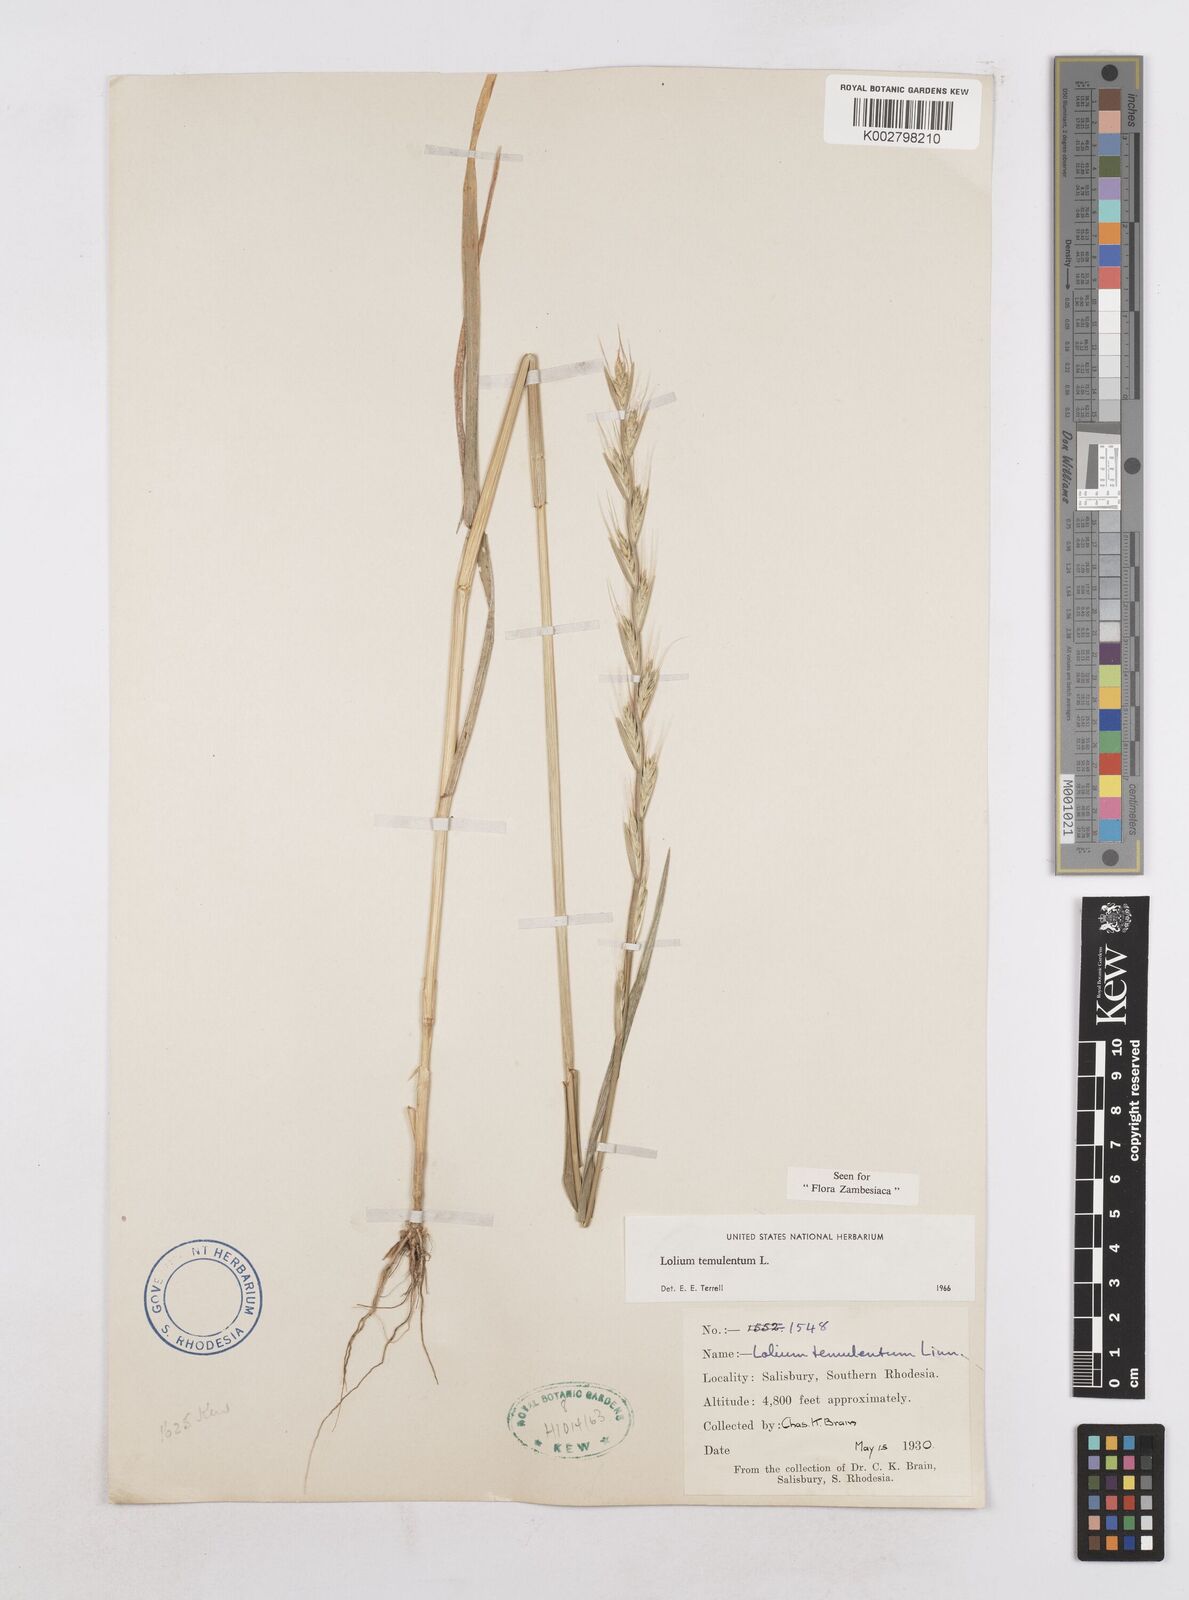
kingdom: Plantae
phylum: Tracheophyta
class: Liliopsida
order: Poales
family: Poaceae
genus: Lolium
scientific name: Lolium temulentum
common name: Darnel
